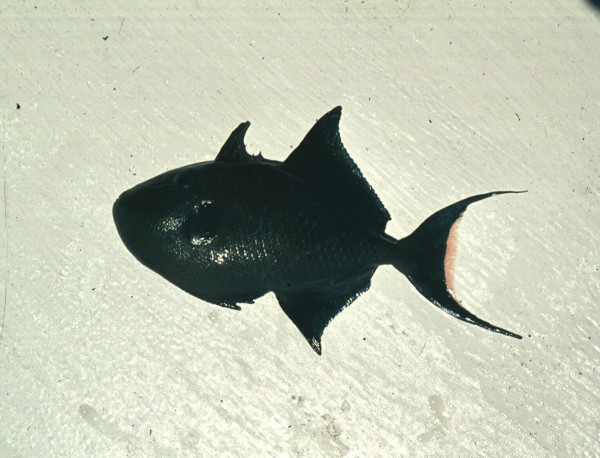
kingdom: Animalia
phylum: Chordata
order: Tetraodontiformes
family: Balistidae
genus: Odonus
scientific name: Odonus niger
